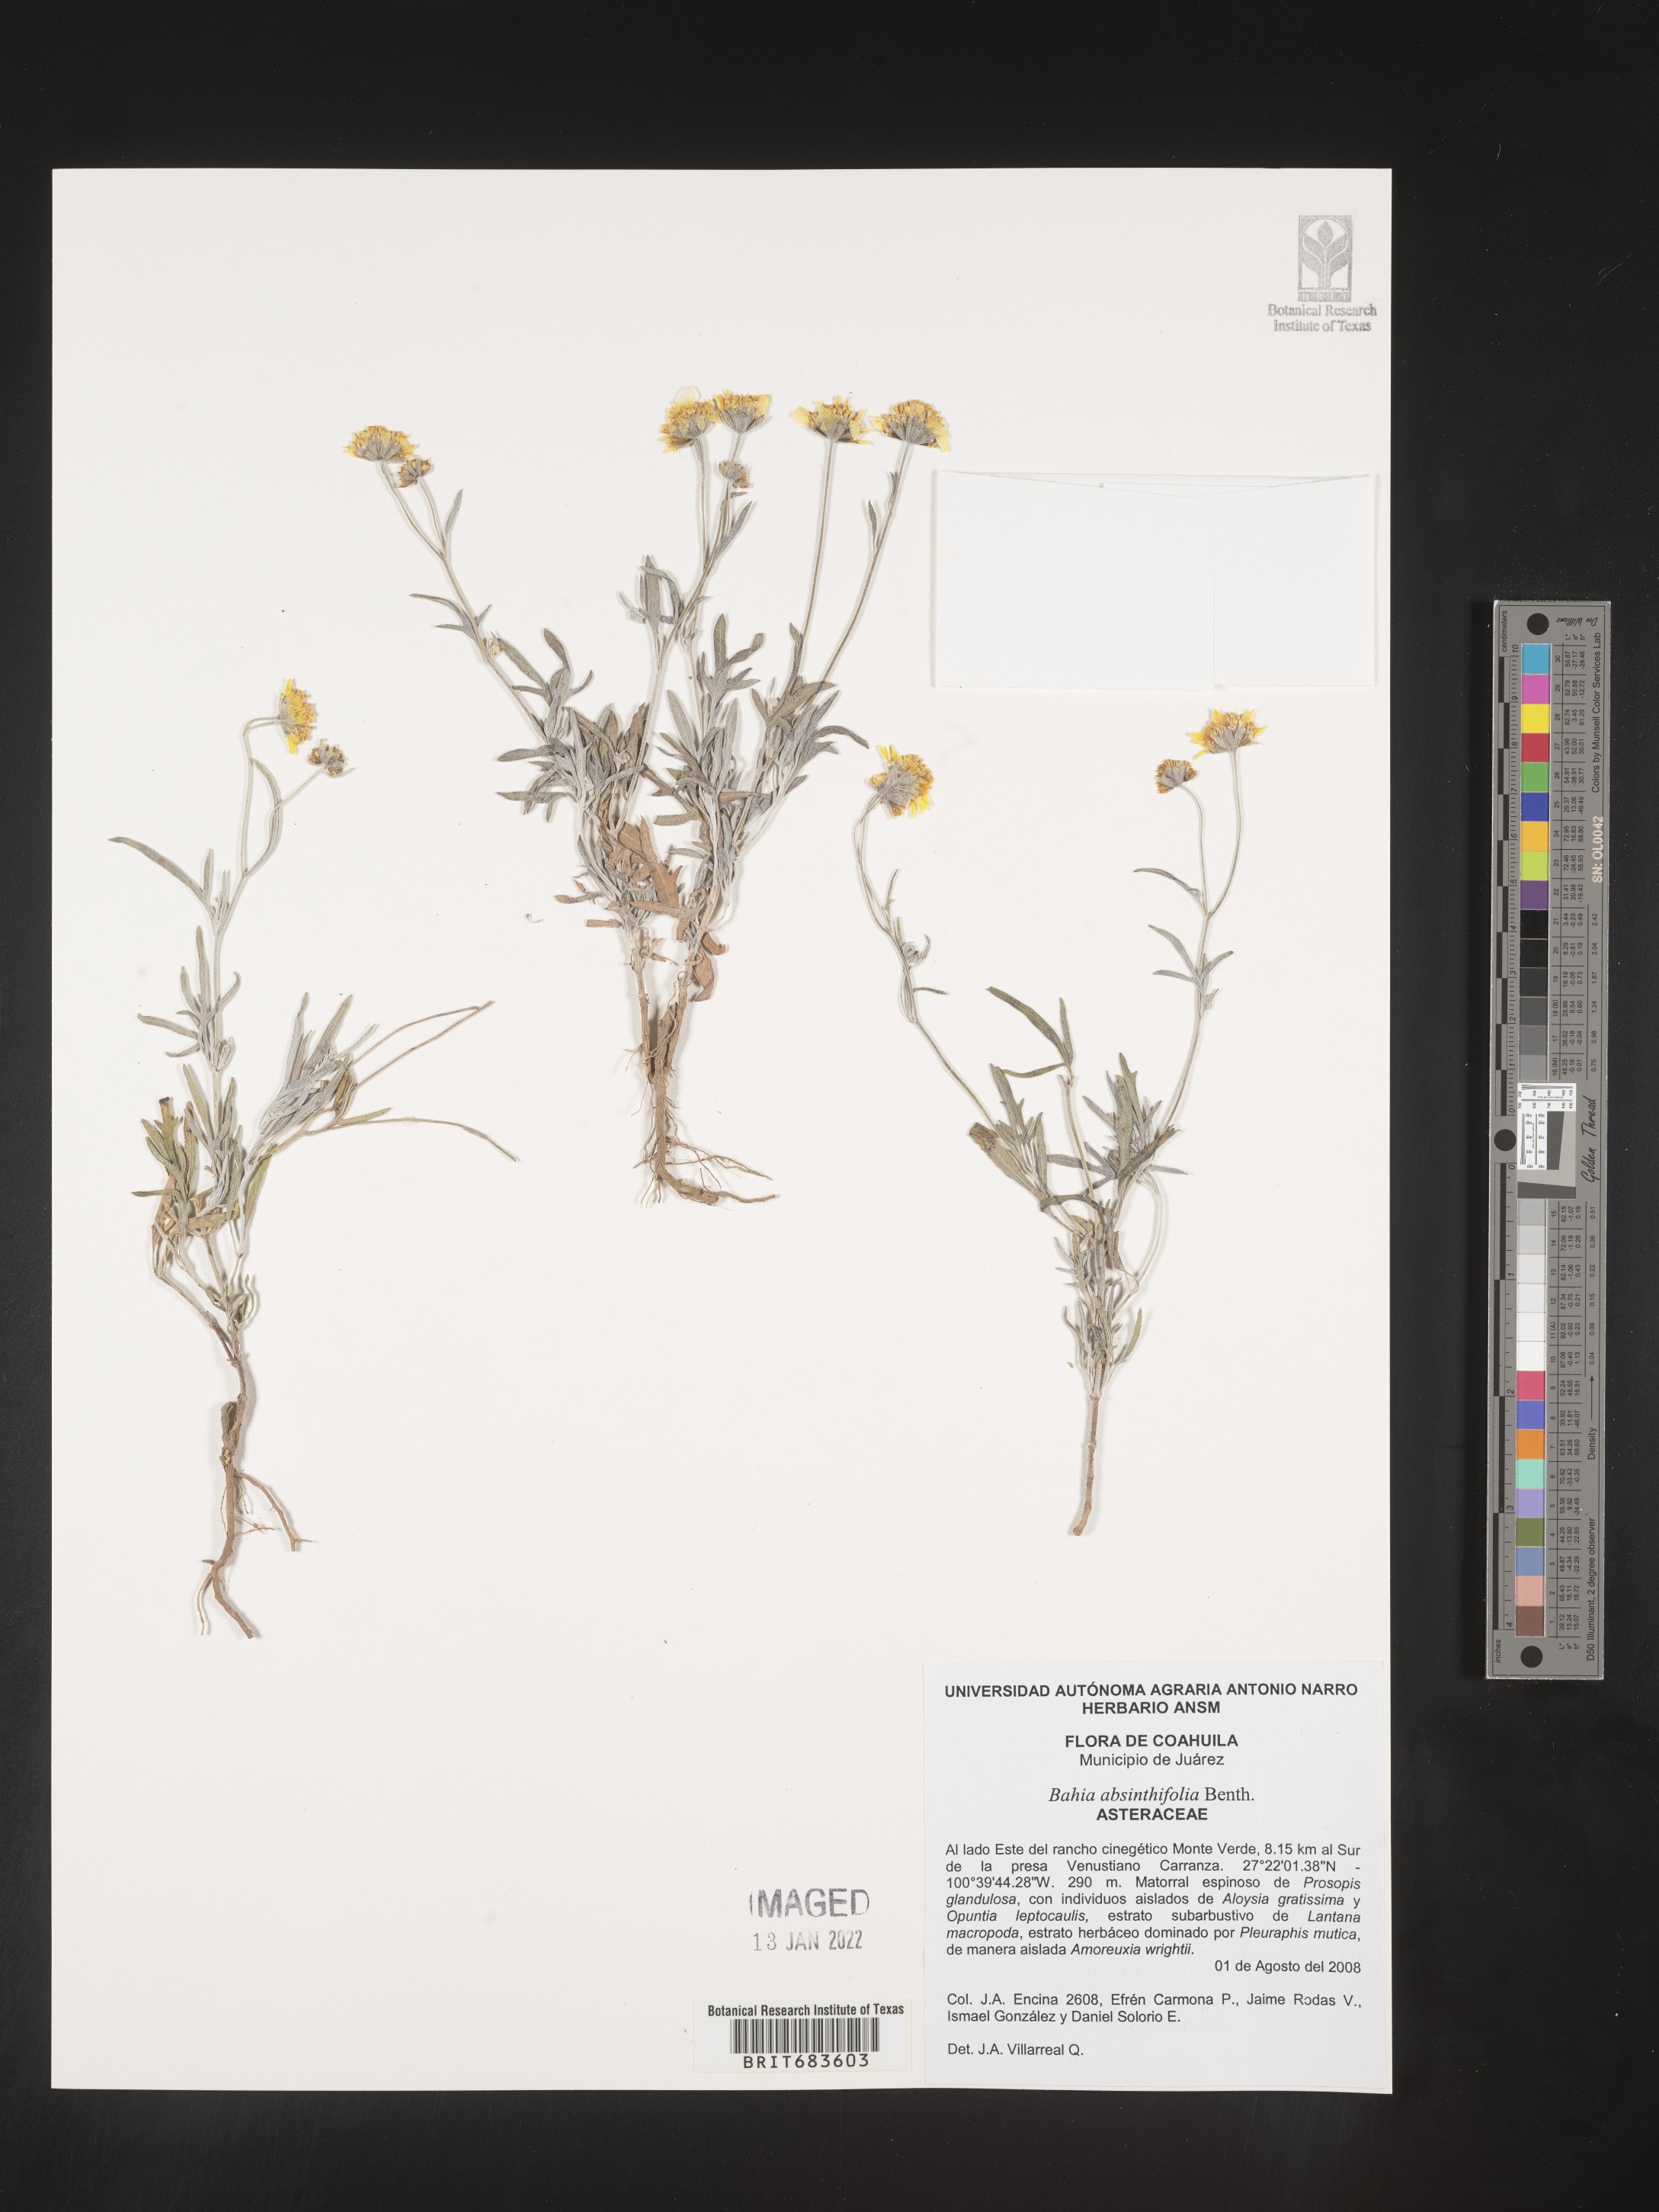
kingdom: Plantae
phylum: Tracheophyta
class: Magnoliopsida
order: Asterales
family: Asteraceae
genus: Picradeniopsis
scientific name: Picradeniopsis absinthifolia
